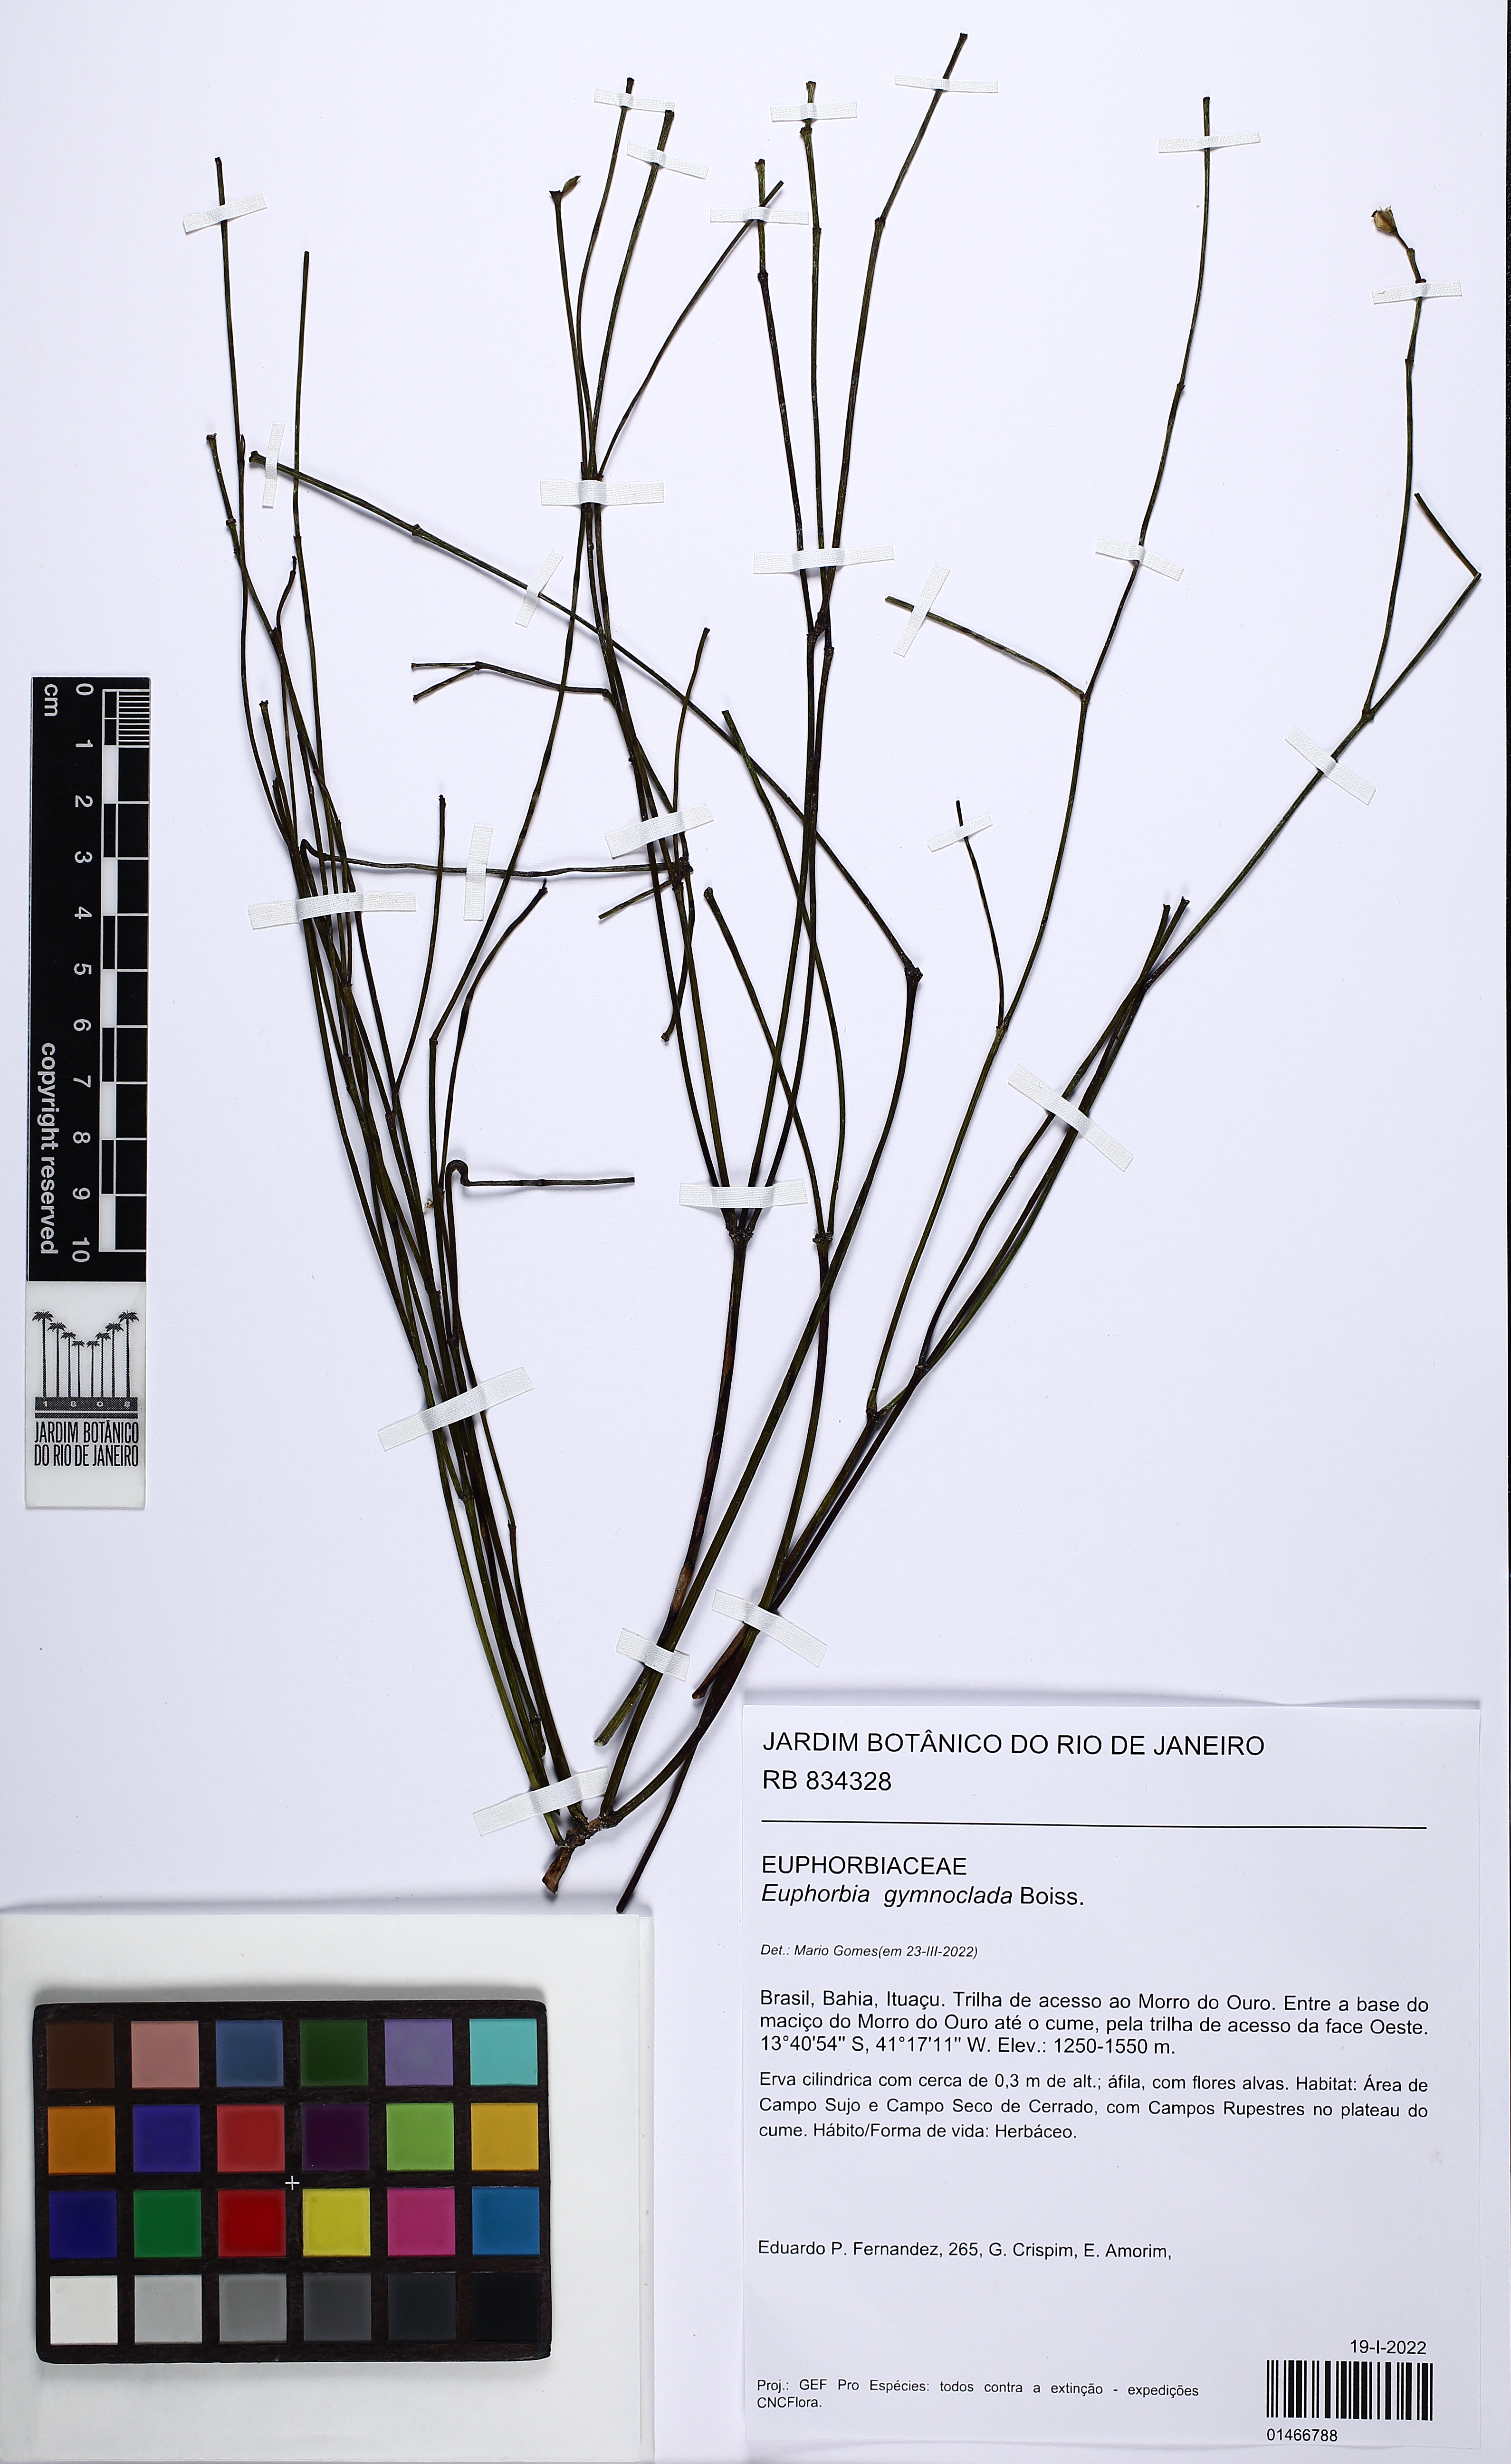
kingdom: Plantae
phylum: Tracheophyta
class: Magnoliopsida
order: Malpighiales
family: Euphorbiaceae
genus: Euphorbia
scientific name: Euphorbia gymnoclada
